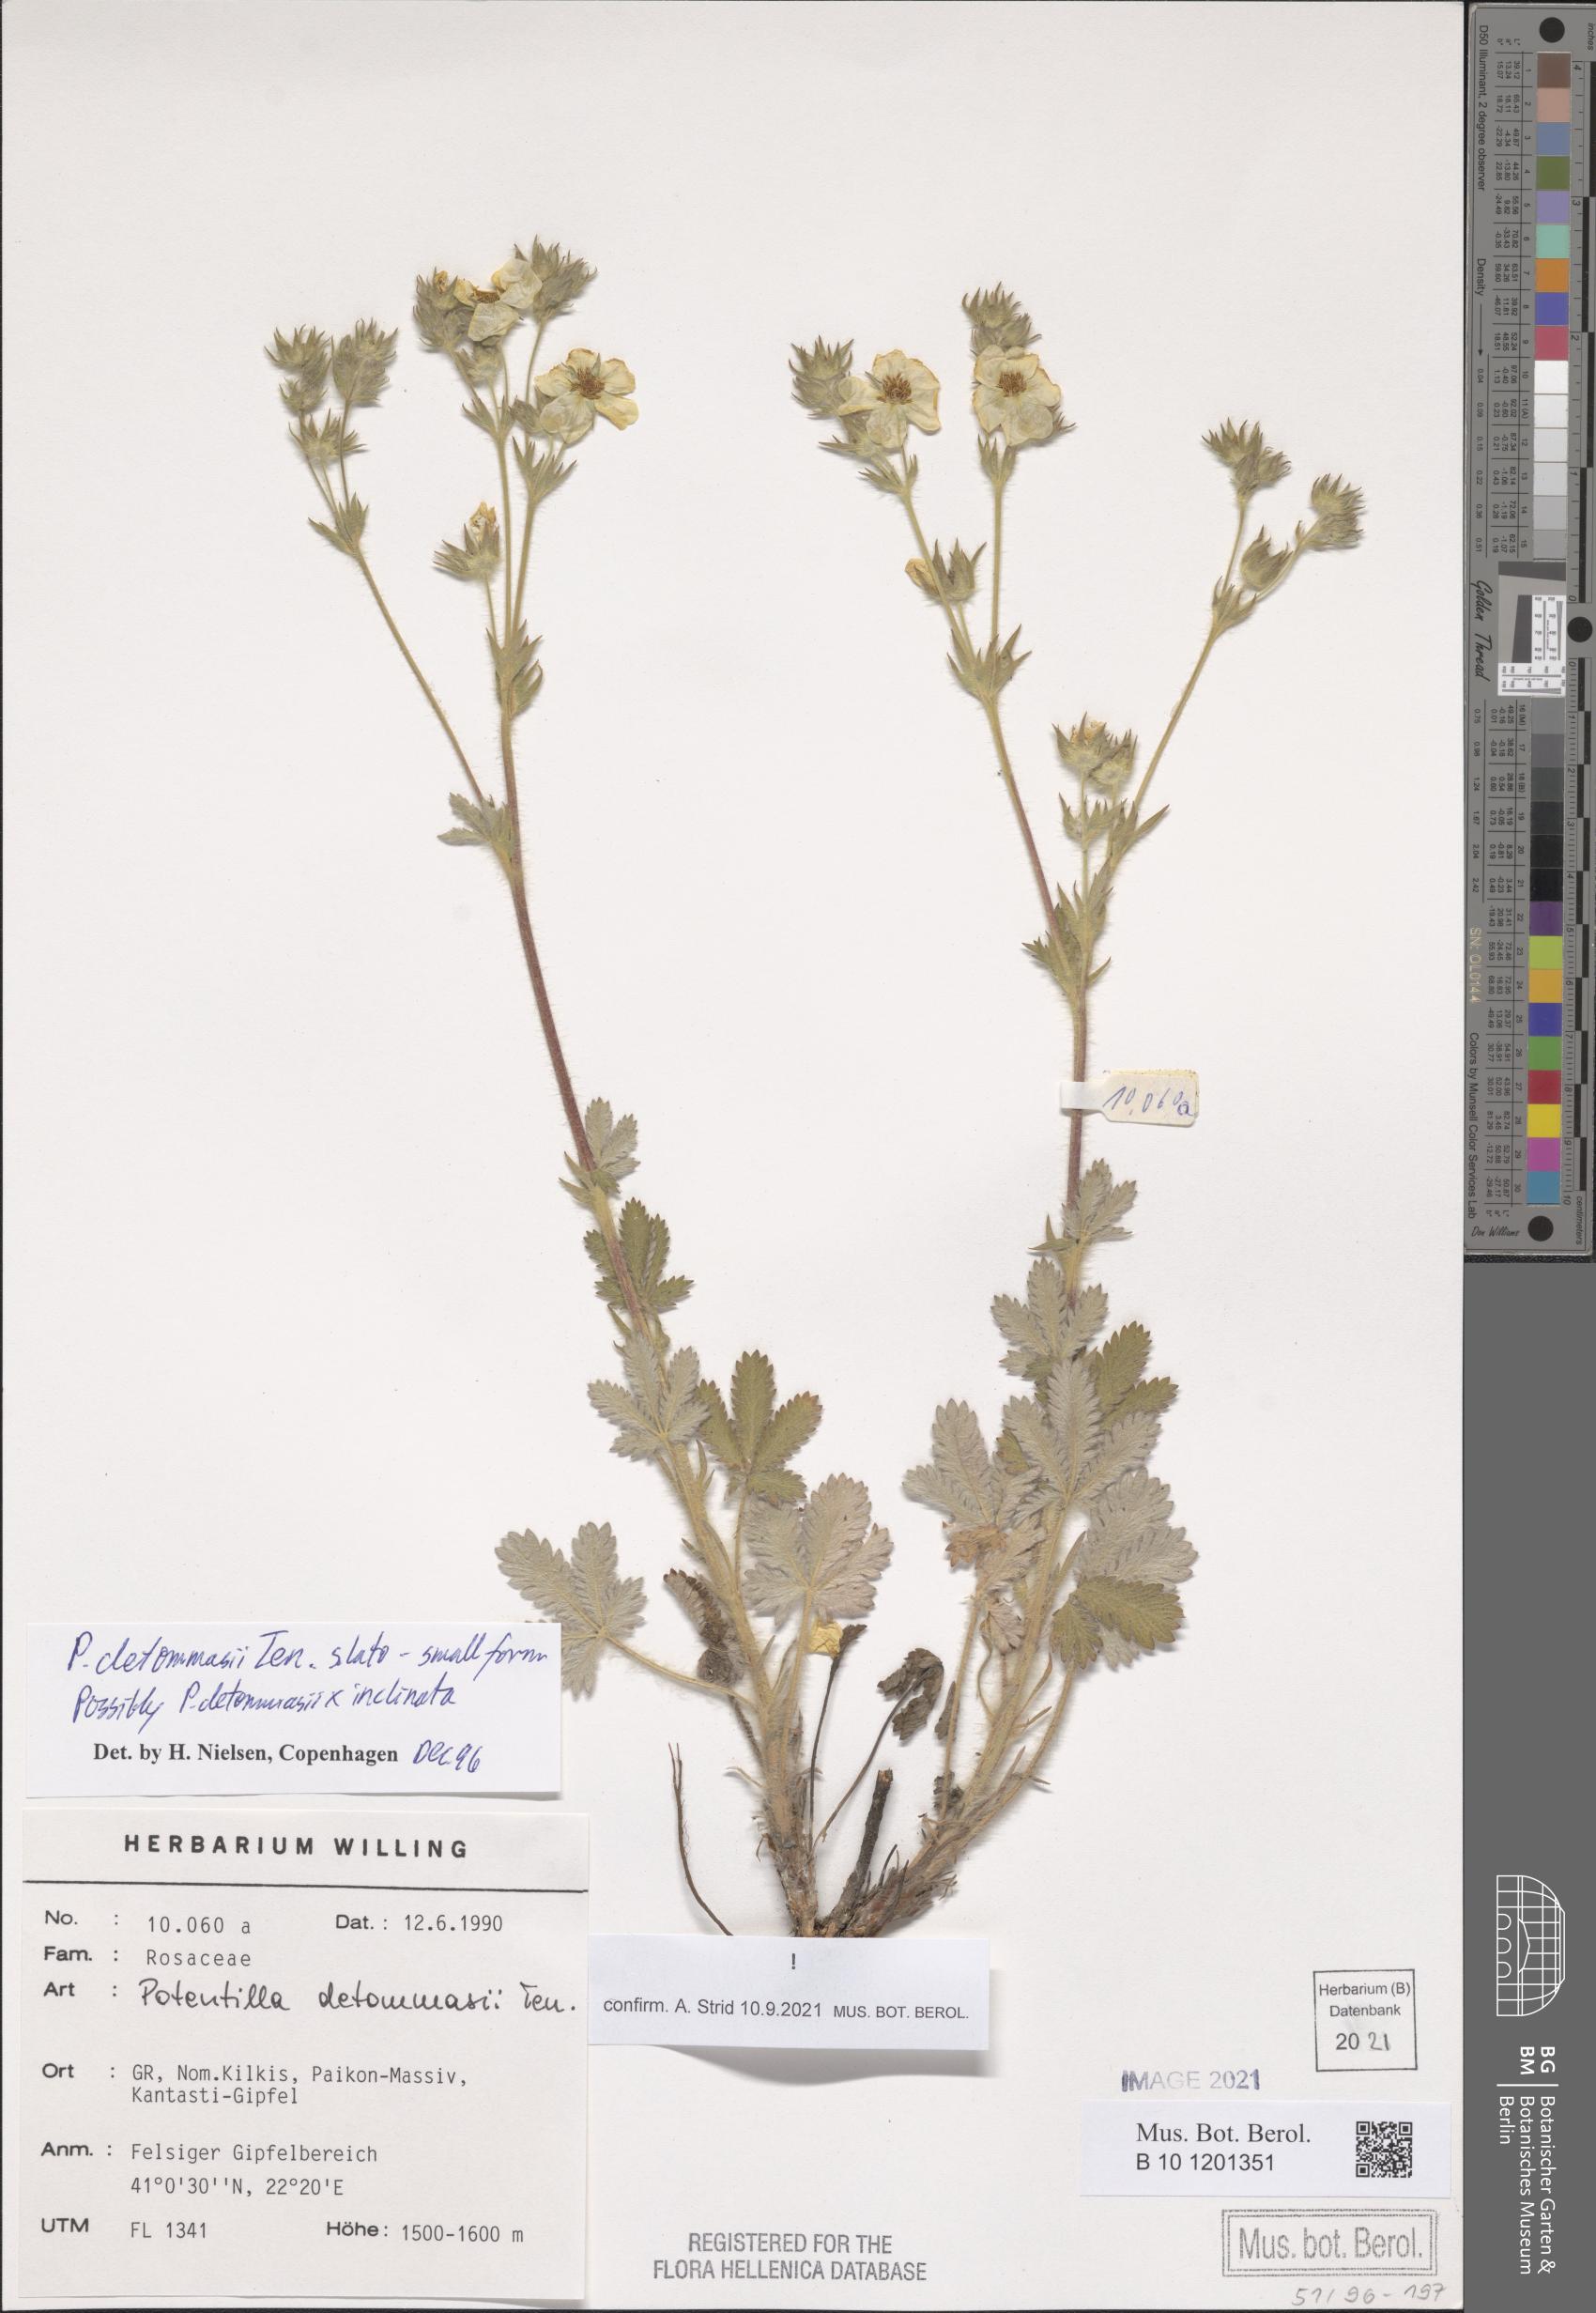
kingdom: Plantae
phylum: Tracheophyta
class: Magnoliopsida
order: Rosales
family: Rosaceae
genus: Potentilla
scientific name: Potentilla detommasii
